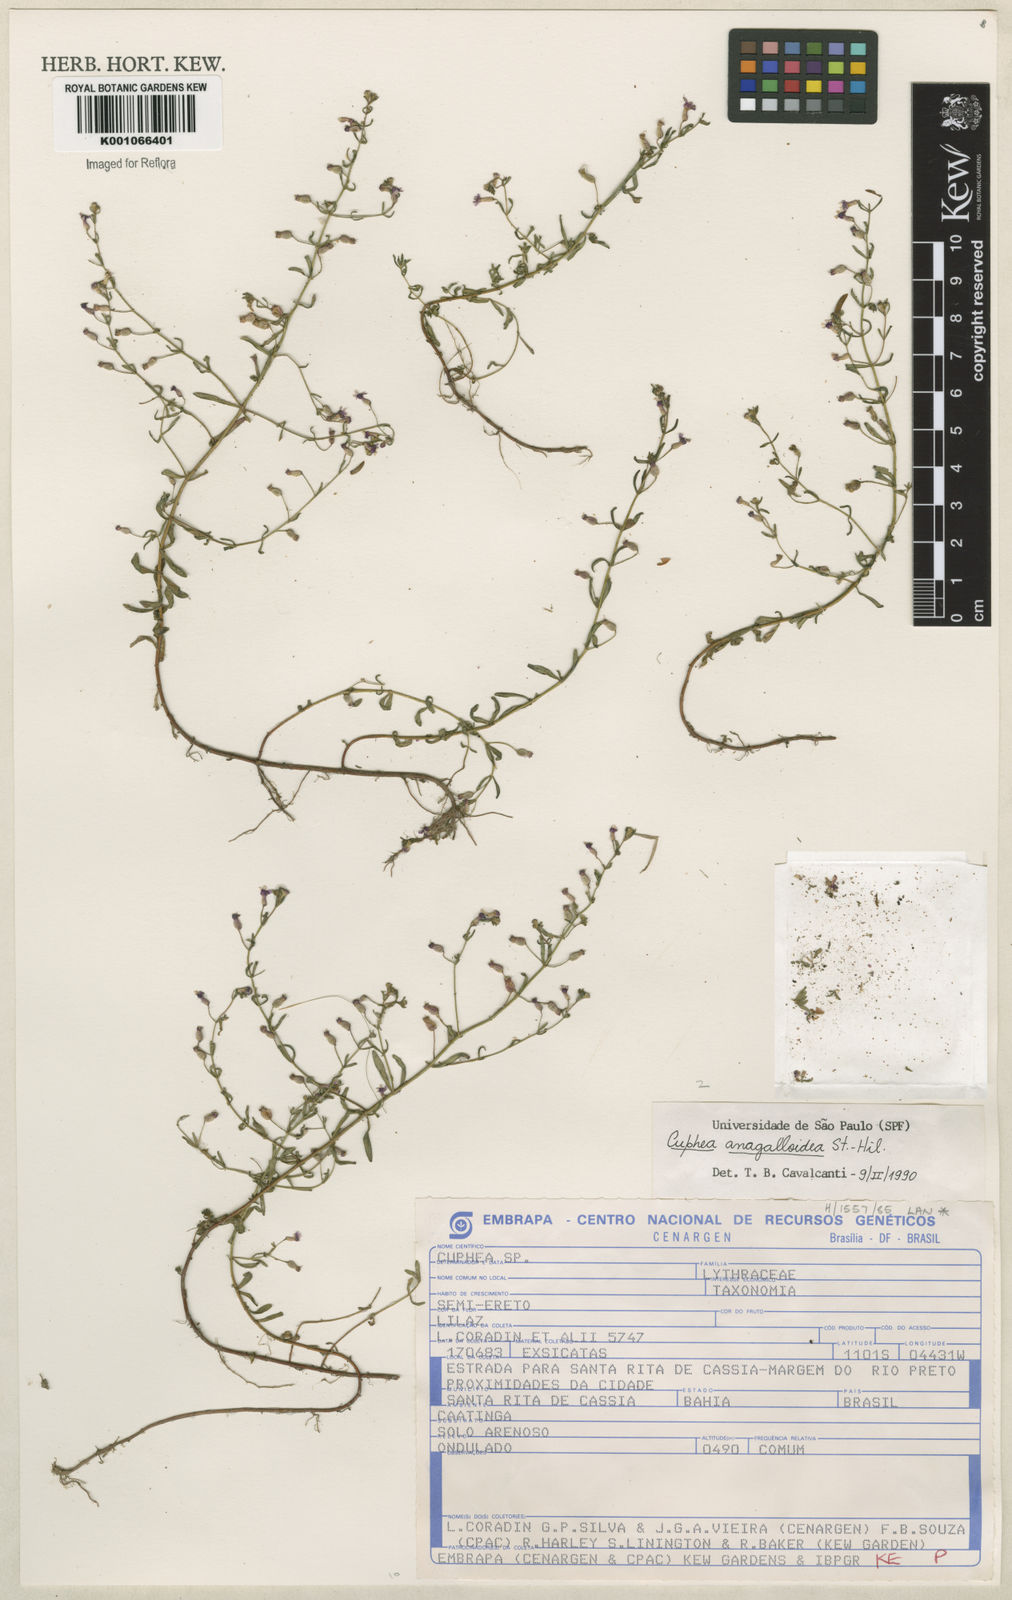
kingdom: Plantae
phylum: Tracheophyta
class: Magnoliopsida
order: Myrtales
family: Lythraceae
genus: Cuphea
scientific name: Cuphea anagalloidea
